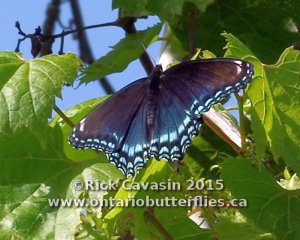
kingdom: Animalia
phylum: Arthropoda
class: Insecta
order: Lepidoptera
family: Nymphalidae
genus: Limenitis
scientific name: Limenitis astyanax
